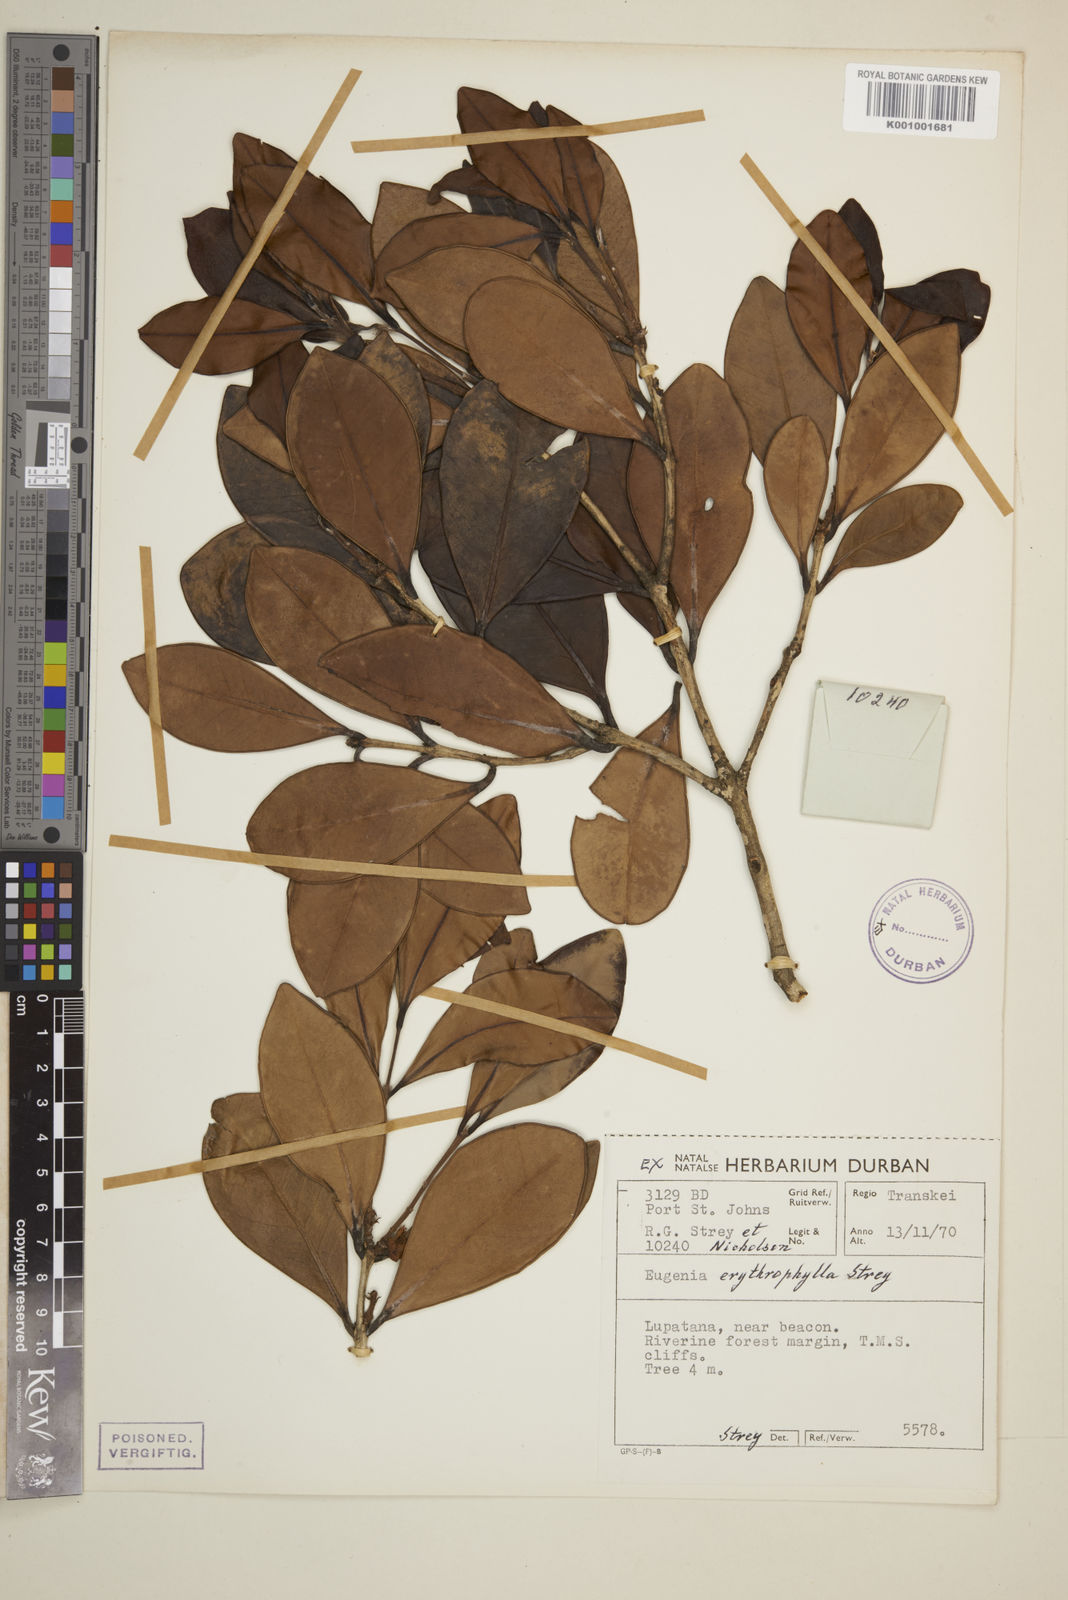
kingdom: Plantae
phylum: Tracheophyta
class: Magnoliopsida
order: Myrtales
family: Myrtaceae
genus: Eugenia
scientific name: Eugenia erythrophylla
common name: Large-leaved myrtle
